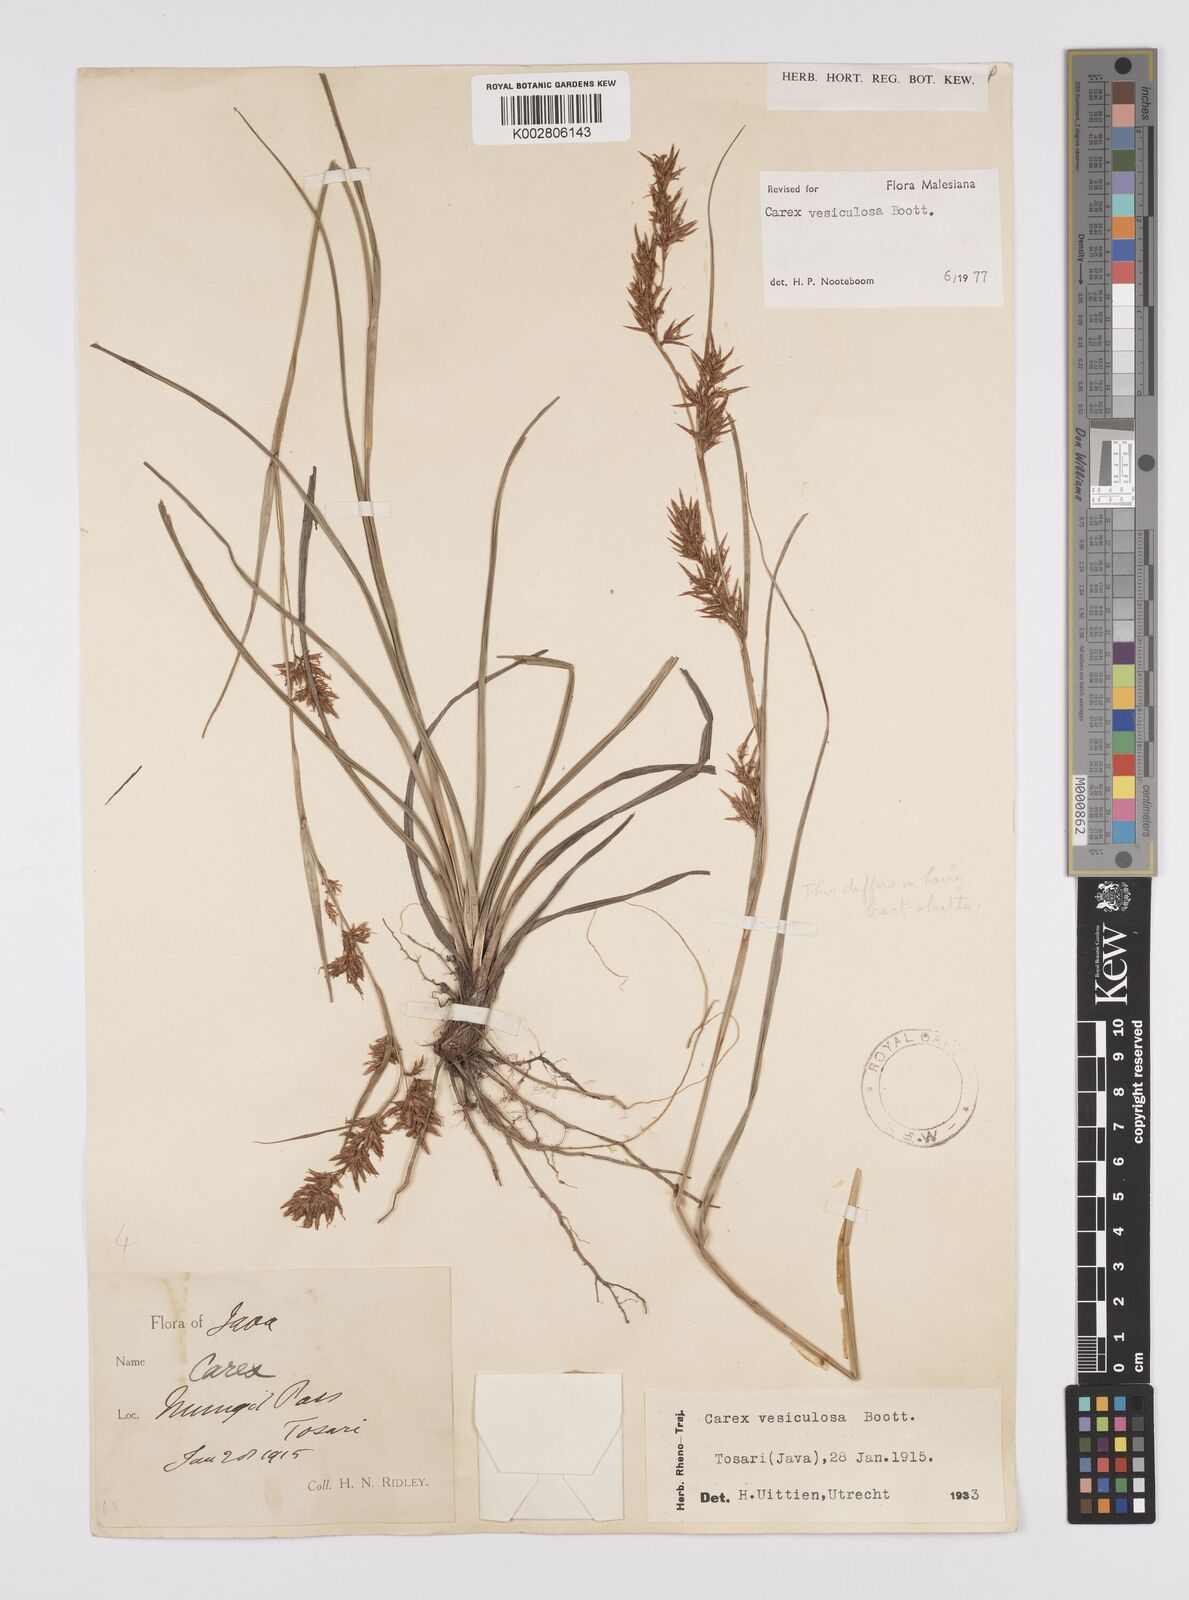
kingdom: Plantae
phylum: Tracheophyta
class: Liliopsida
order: Poales
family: Cyperaceae
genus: Carex
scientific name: Carex vesiculosa
